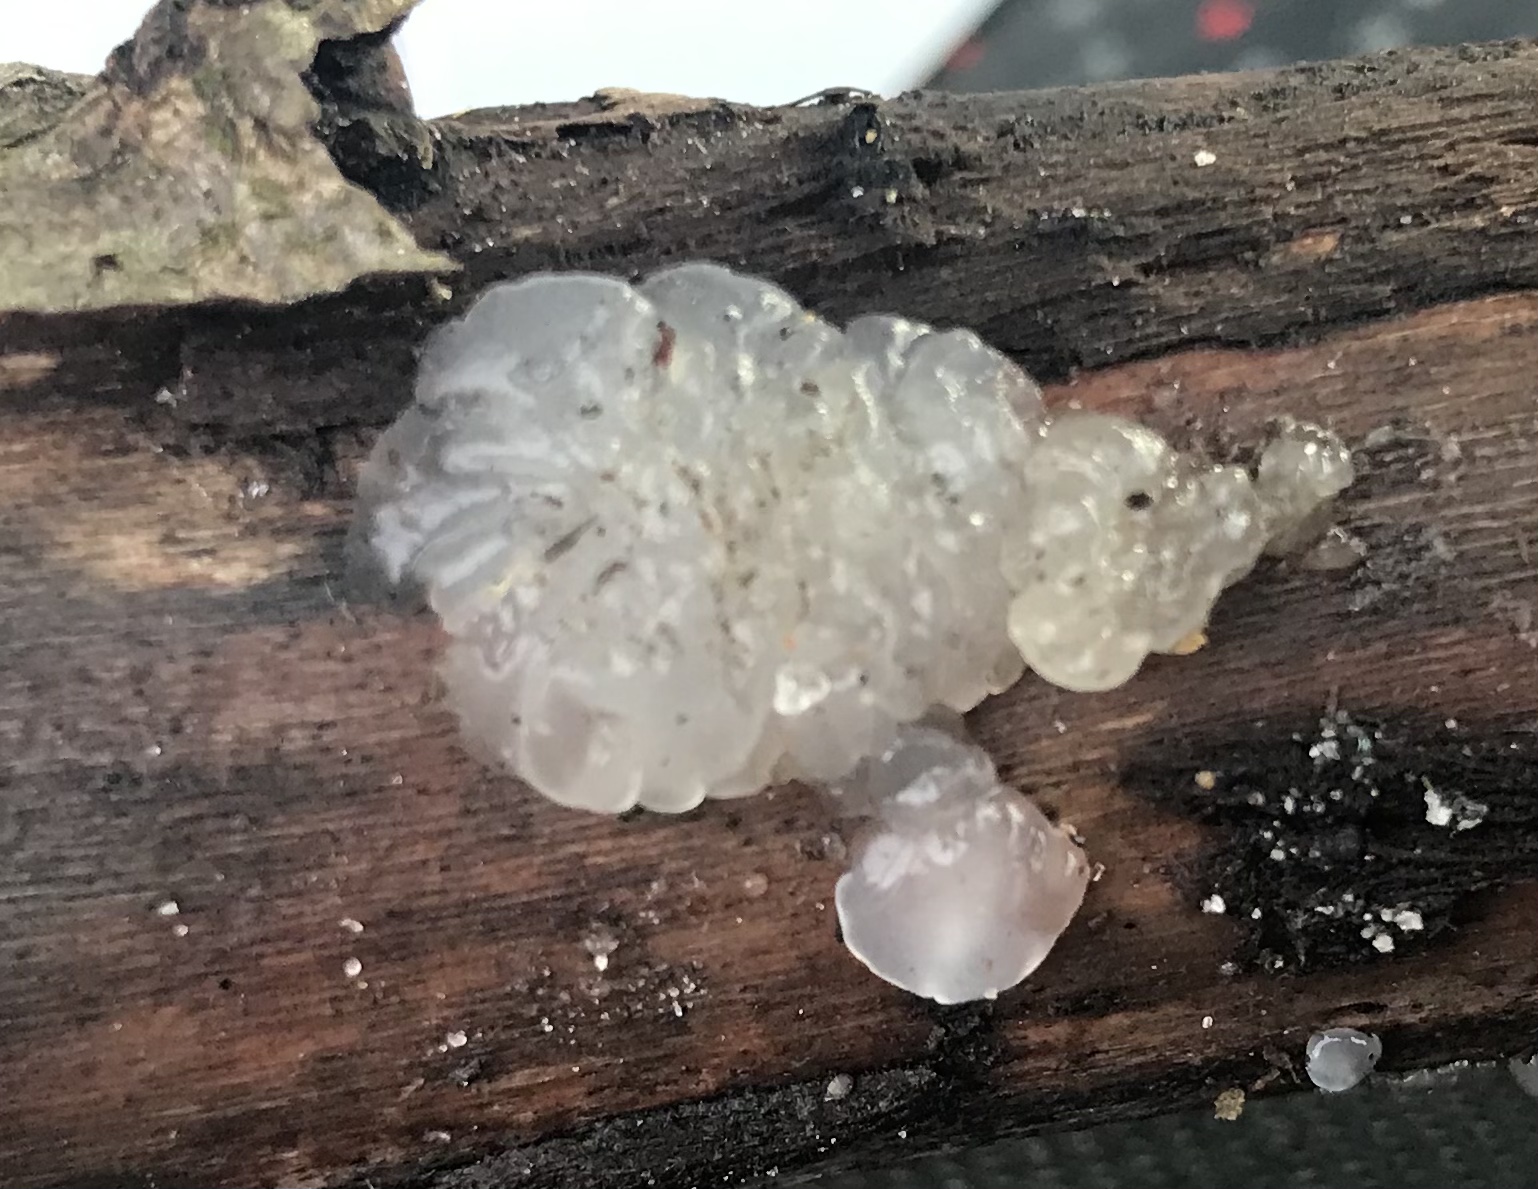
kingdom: Fungi
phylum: Basidiomycota
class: Agaricomycetes
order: Auriculariales
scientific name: Auriculariales
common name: judasøreordenen
